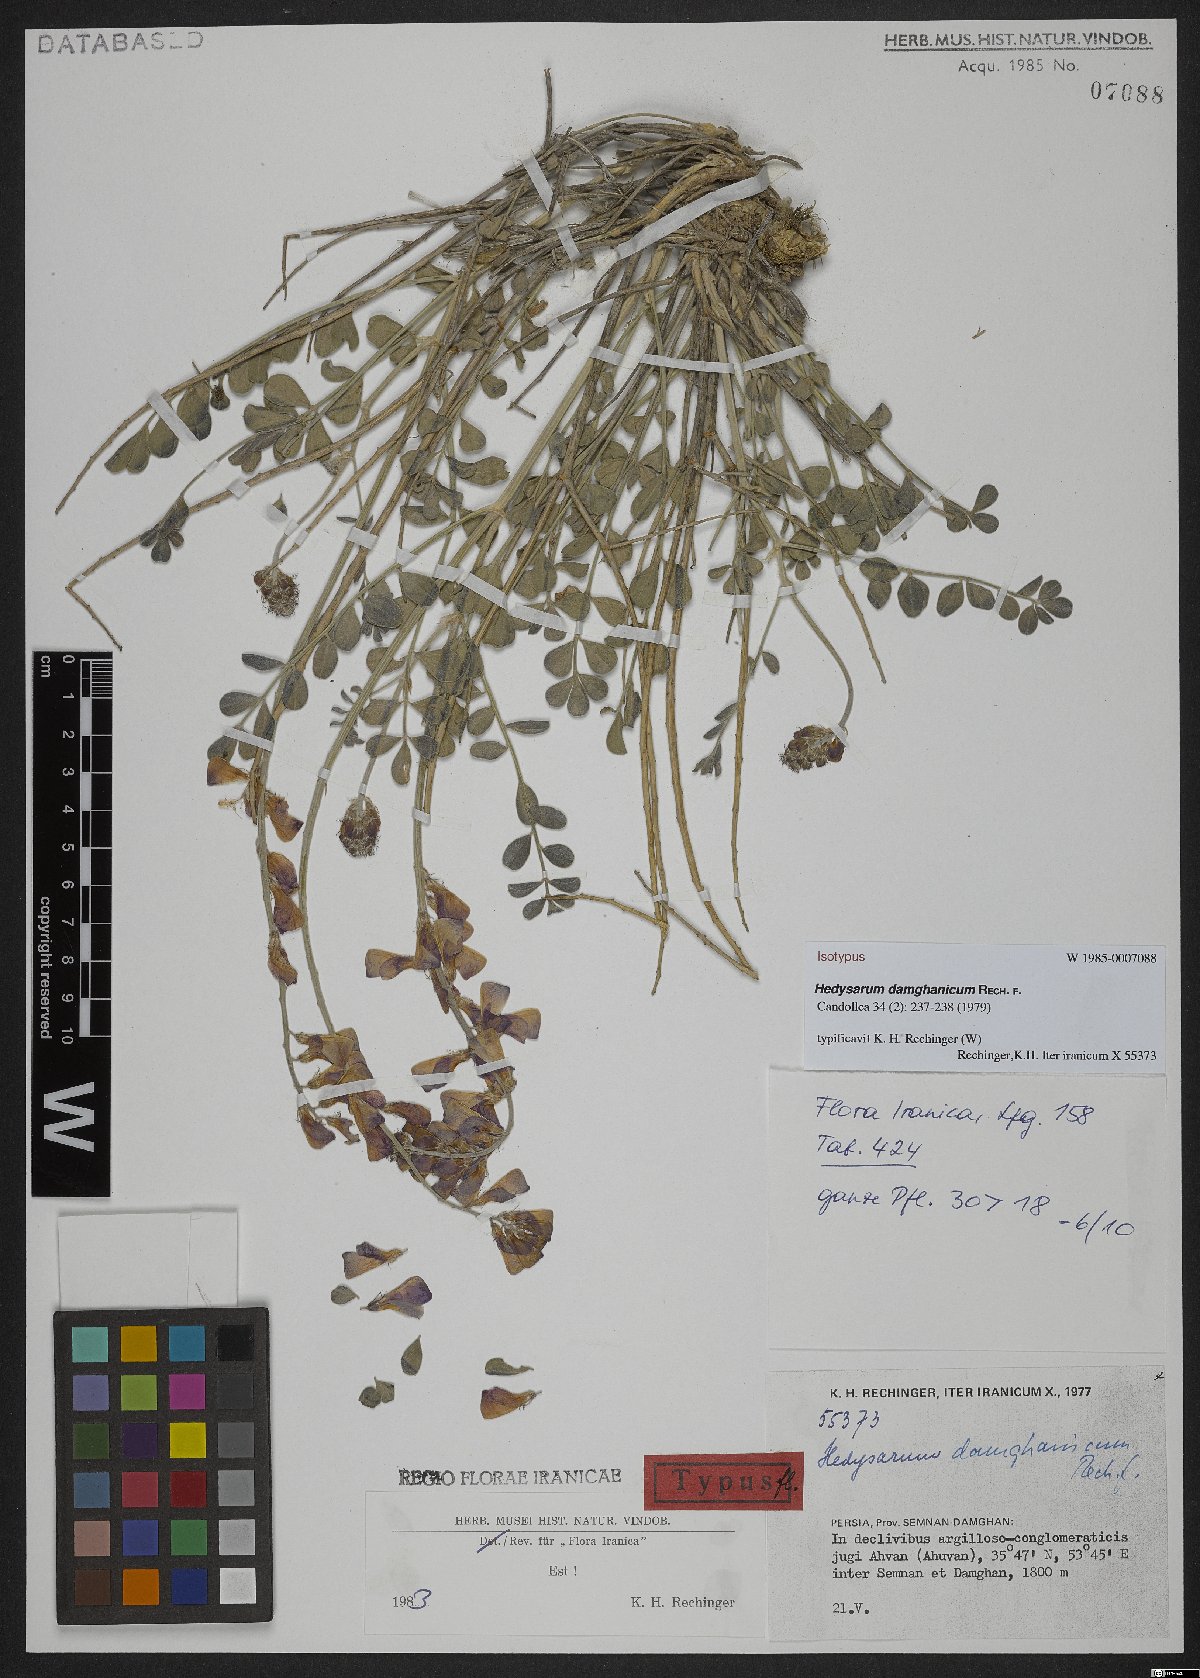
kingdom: Plantae
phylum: Tracheophyta
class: Magnoliopsida
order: Fabales
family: Fabaceae
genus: Hedysarum
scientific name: Hedysarum damghanicum
